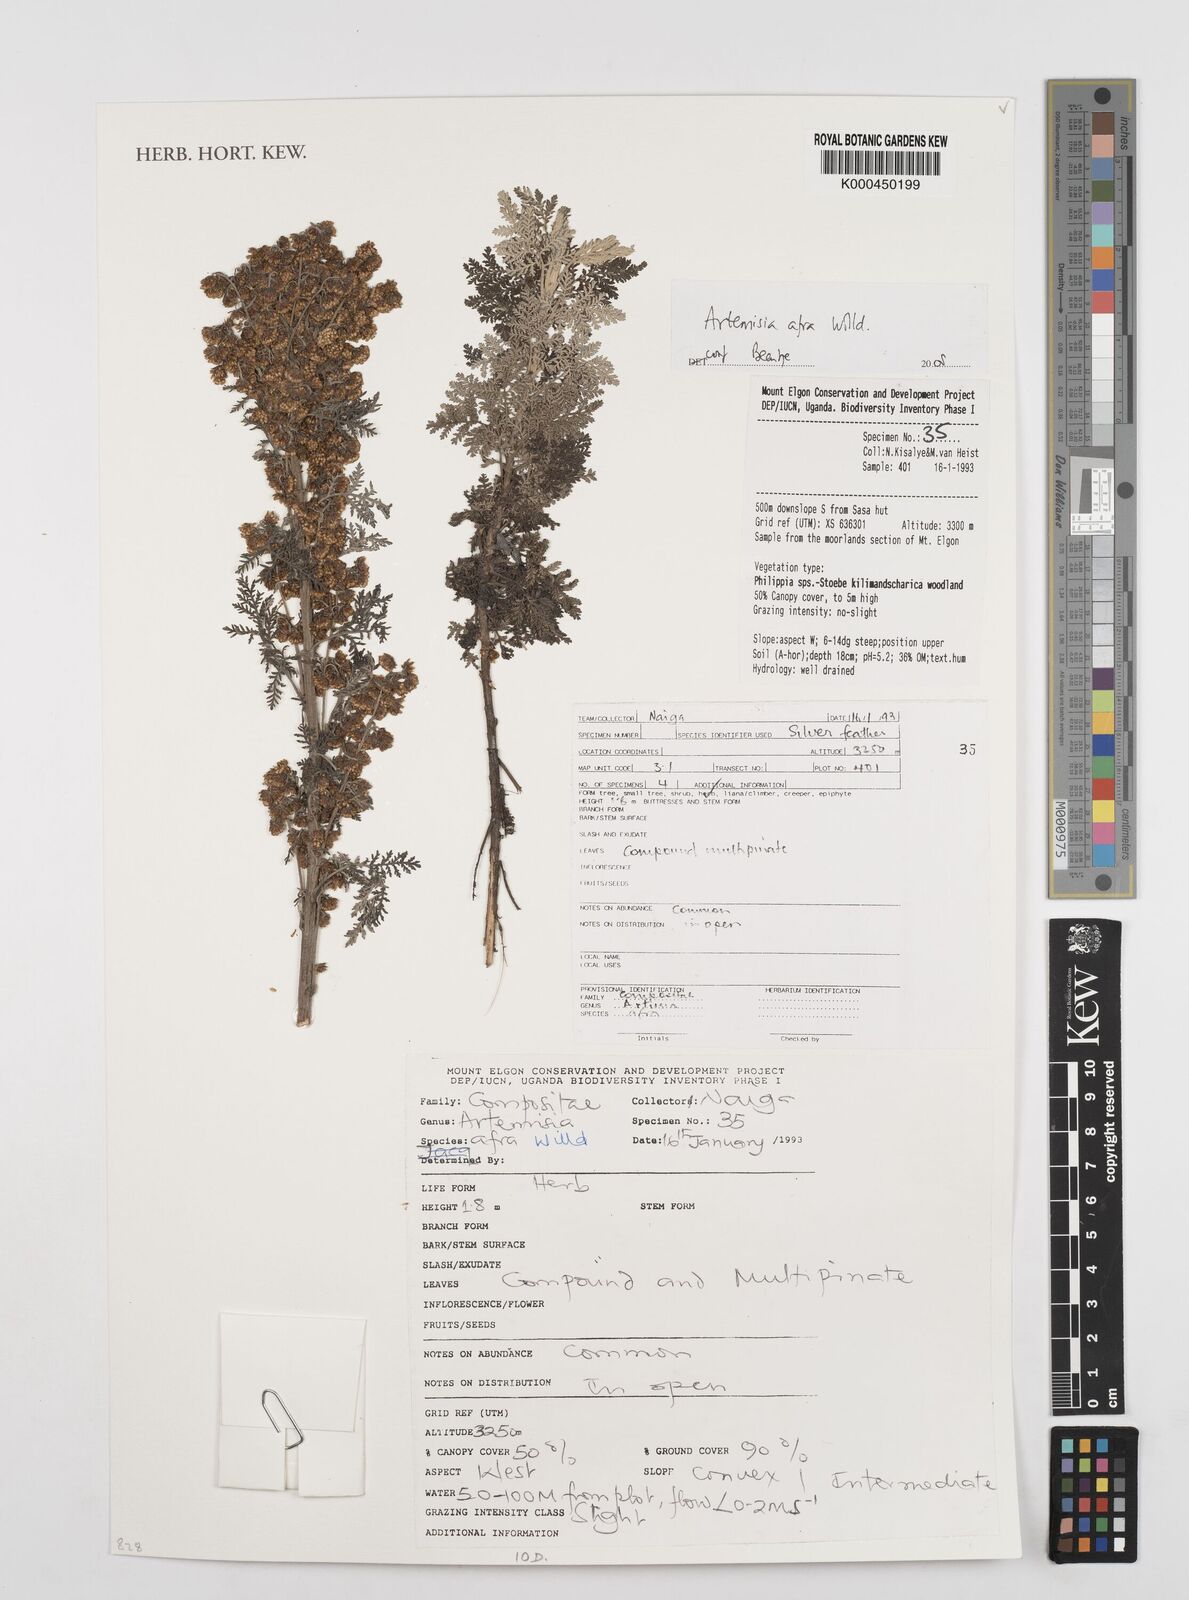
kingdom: Plantae
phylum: Tracheophyta
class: Magnoliopsida
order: Asterales
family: Asteraceae
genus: Artemisia
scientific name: Artemisia
